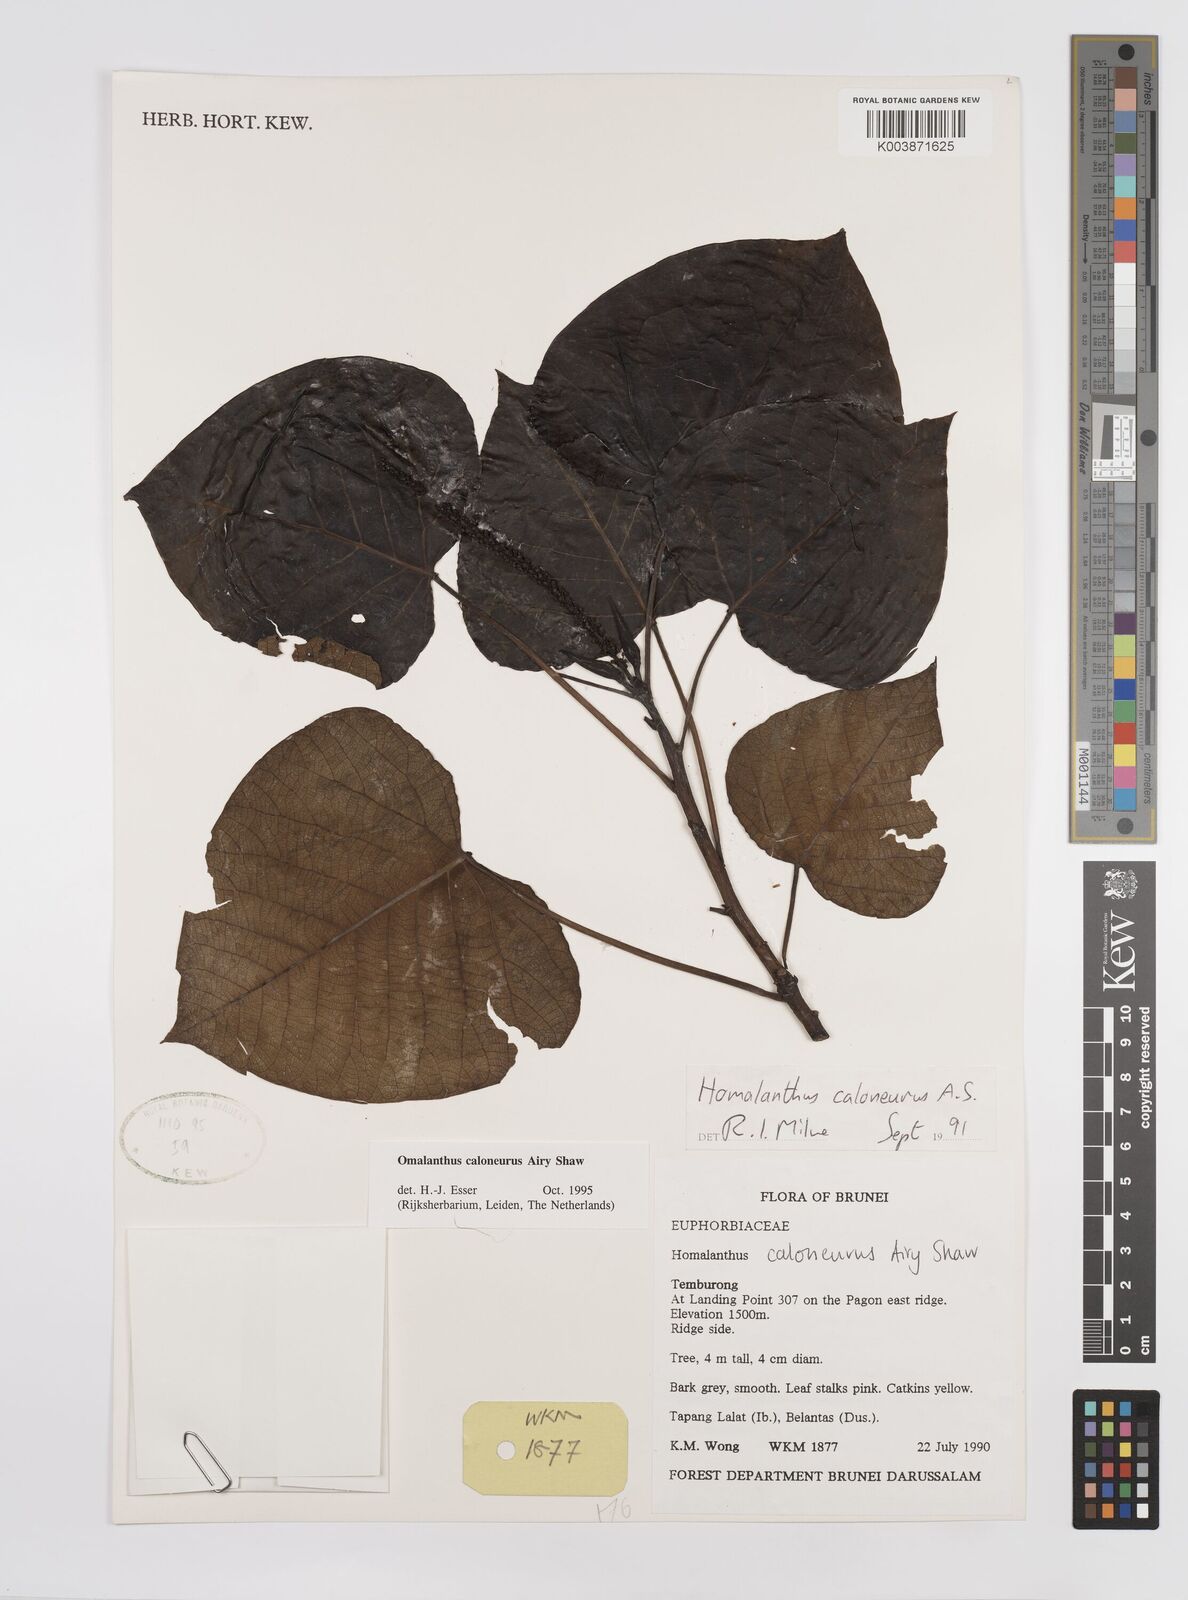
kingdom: Plantae
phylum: Tracheophyta
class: Magnoliopsida
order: Malpighiales
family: Euphorbiaceae
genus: Homalanthus
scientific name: Homalanthus caloneurus
